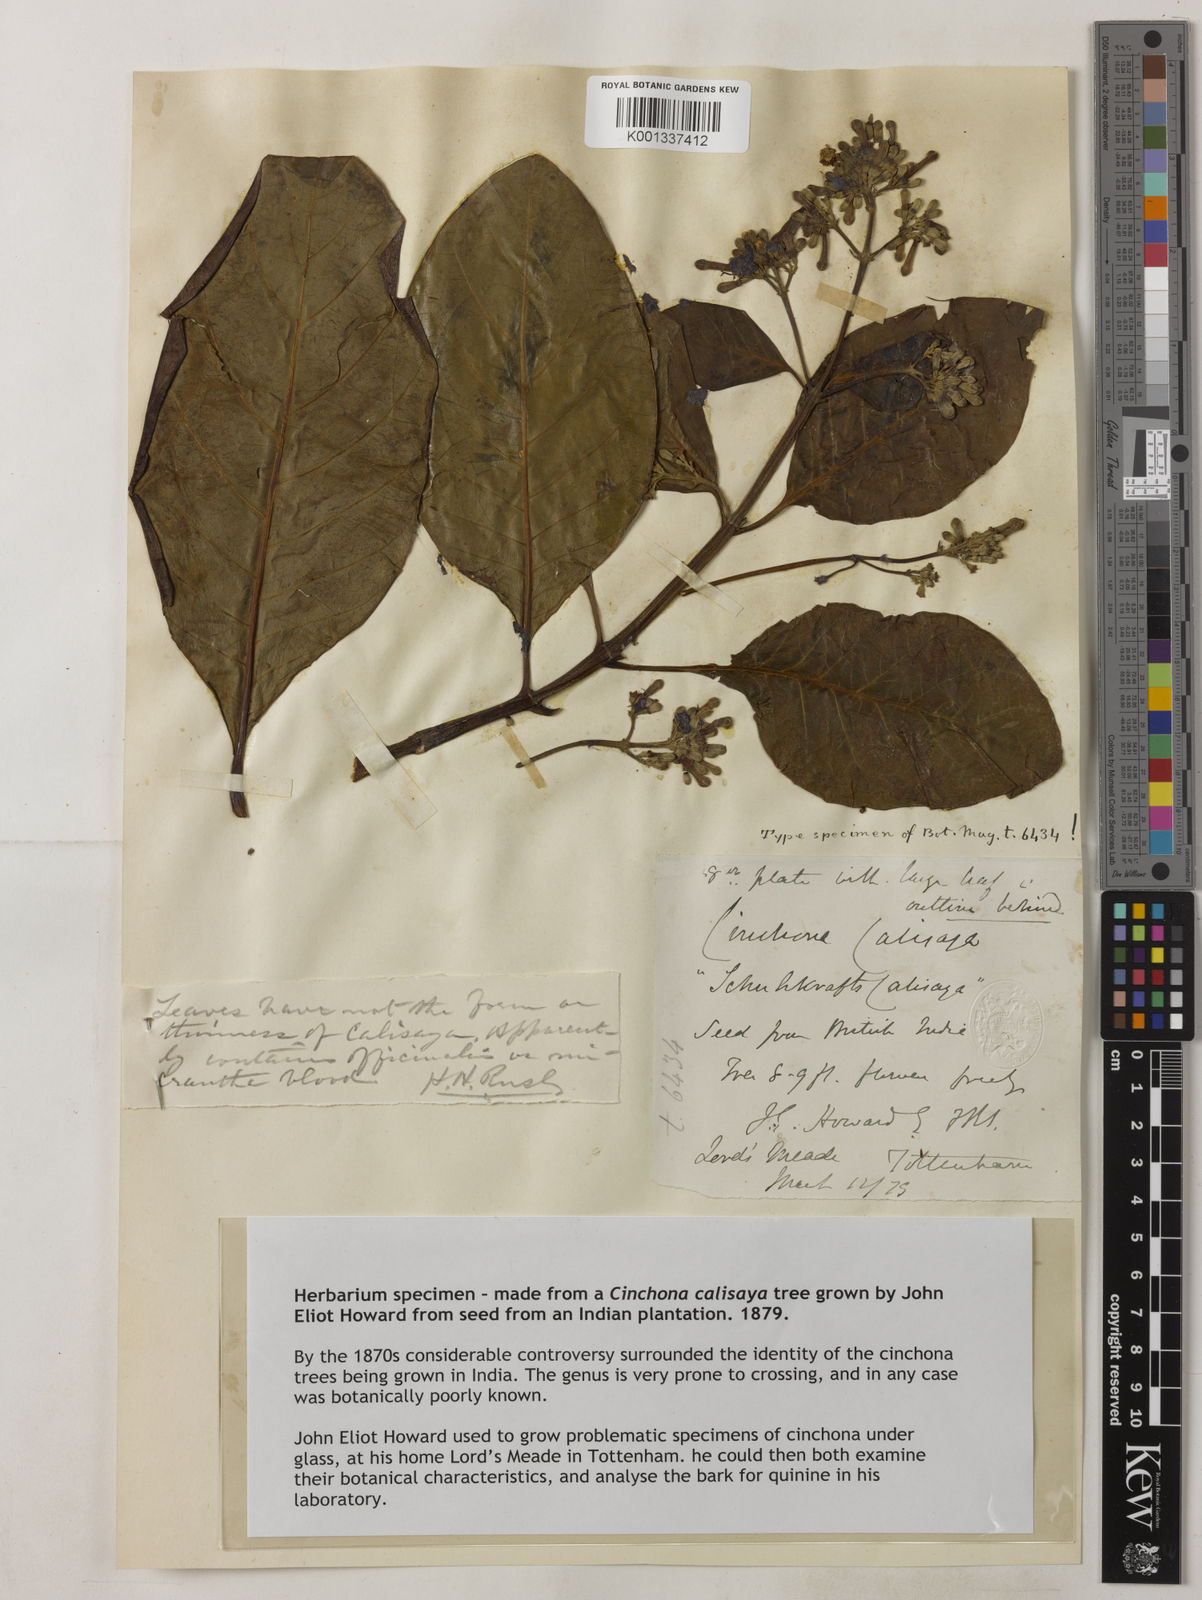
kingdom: Plantae
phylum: Tracheophyta
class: Magnoliopsida
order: Gentianales
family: Rubiaceae
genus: Cinchona
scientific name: Cinchona calisaya
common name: Ledgerbark
